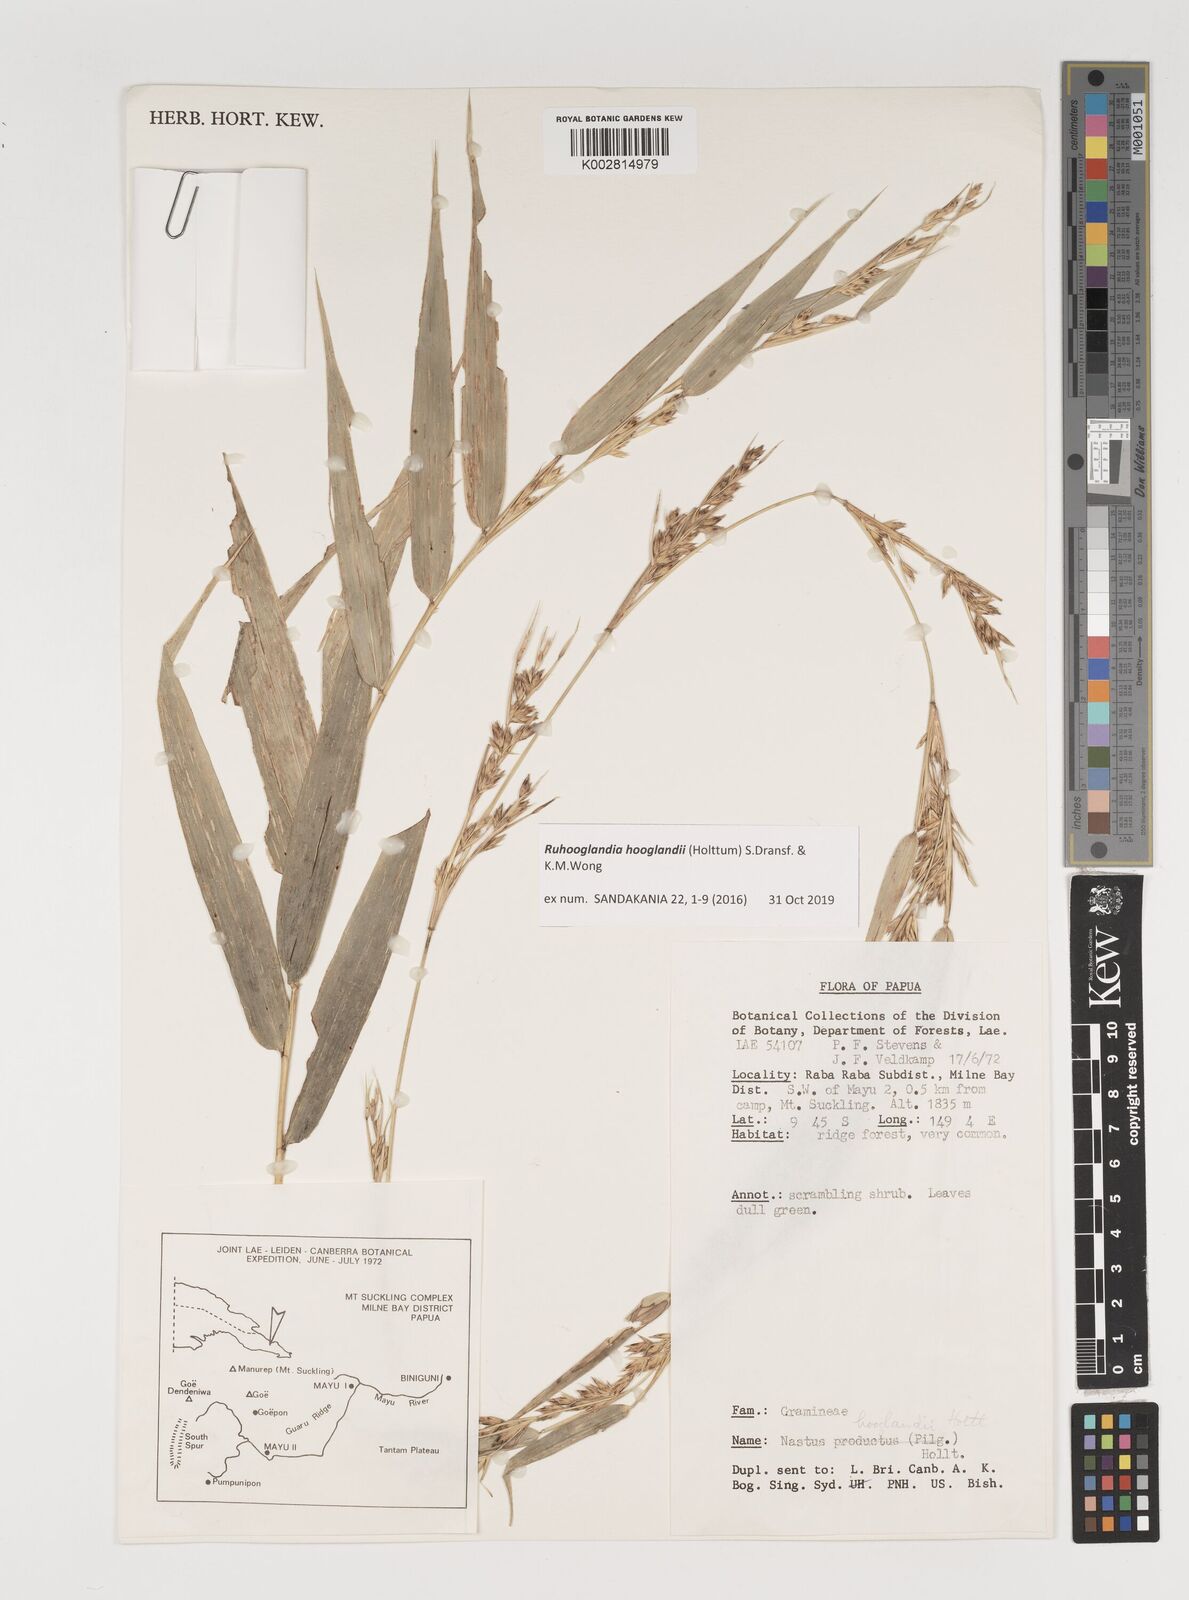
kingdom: Plantae
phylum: Tracheophyta
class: Liliopsida
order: Poales
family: Poaceae
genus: Greslania
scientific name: Greslania
